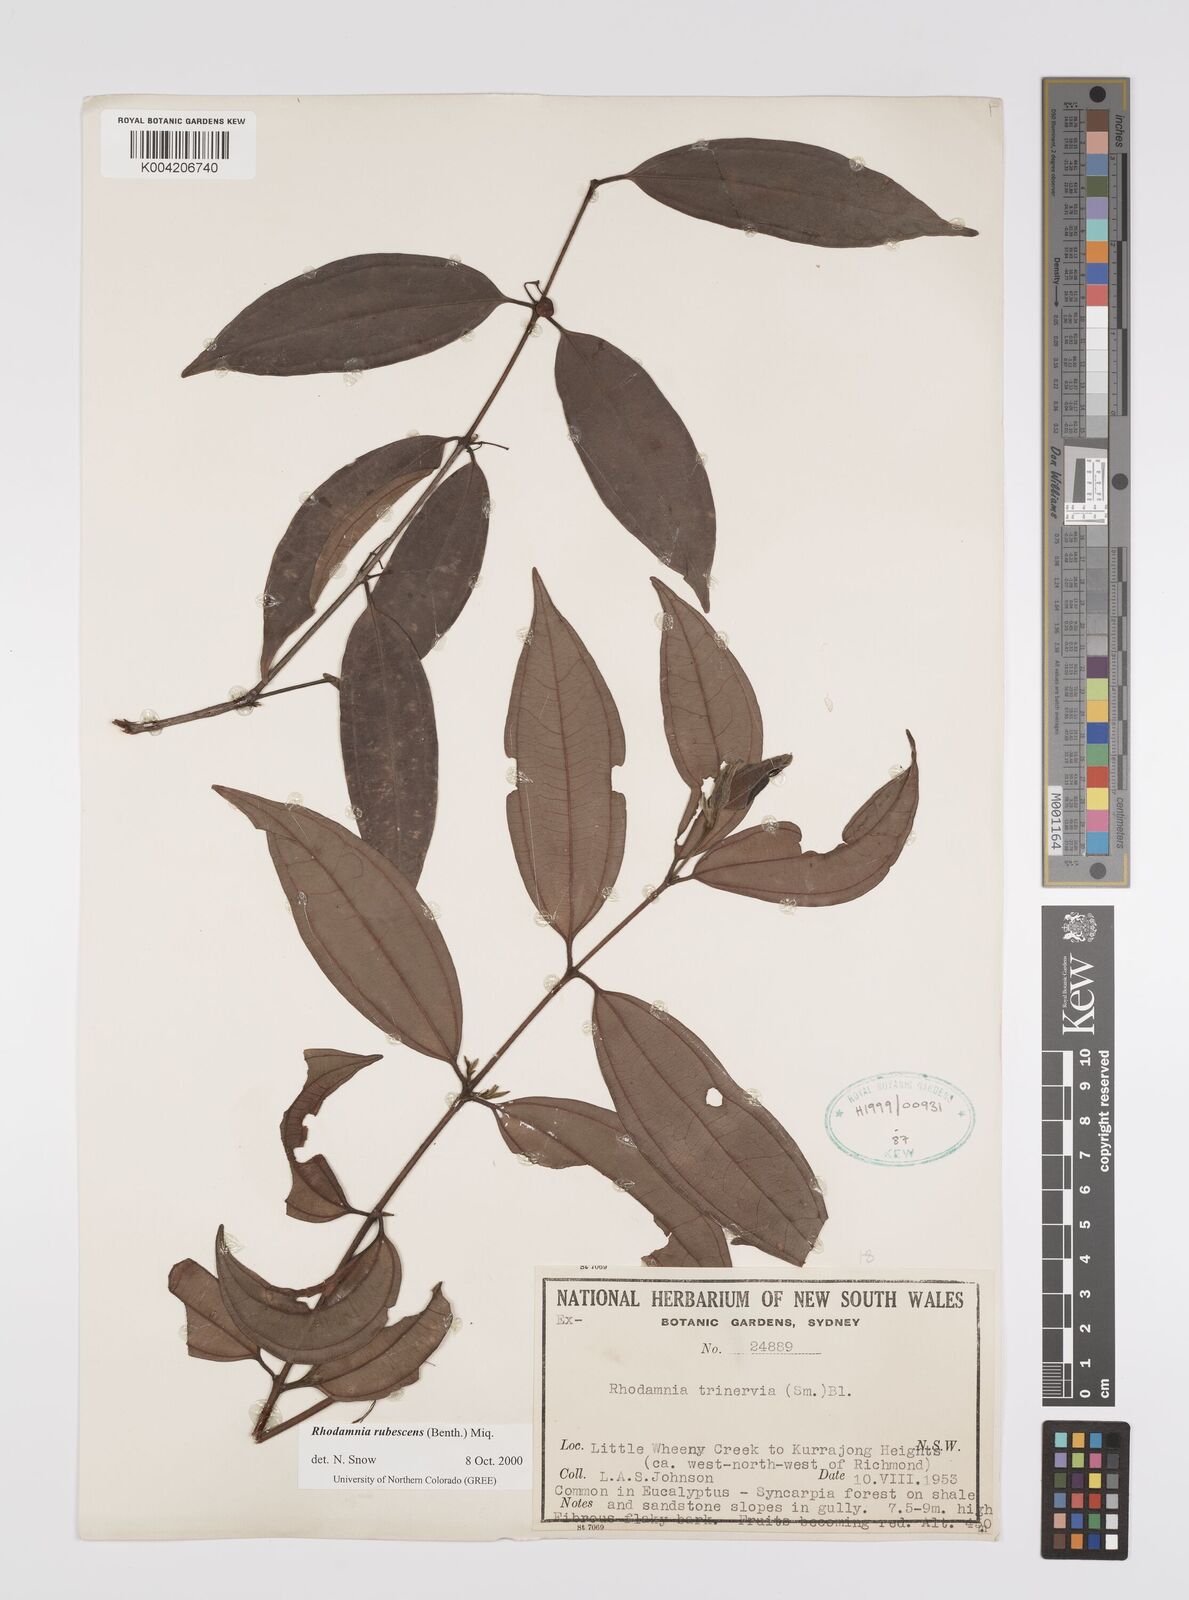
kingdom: Plantae
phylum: Tracheophyta
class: Magnoliopsida
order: Myrtales
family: Myrtaceae
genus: Rhodamnia
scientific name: Rhodamnia rubescens
